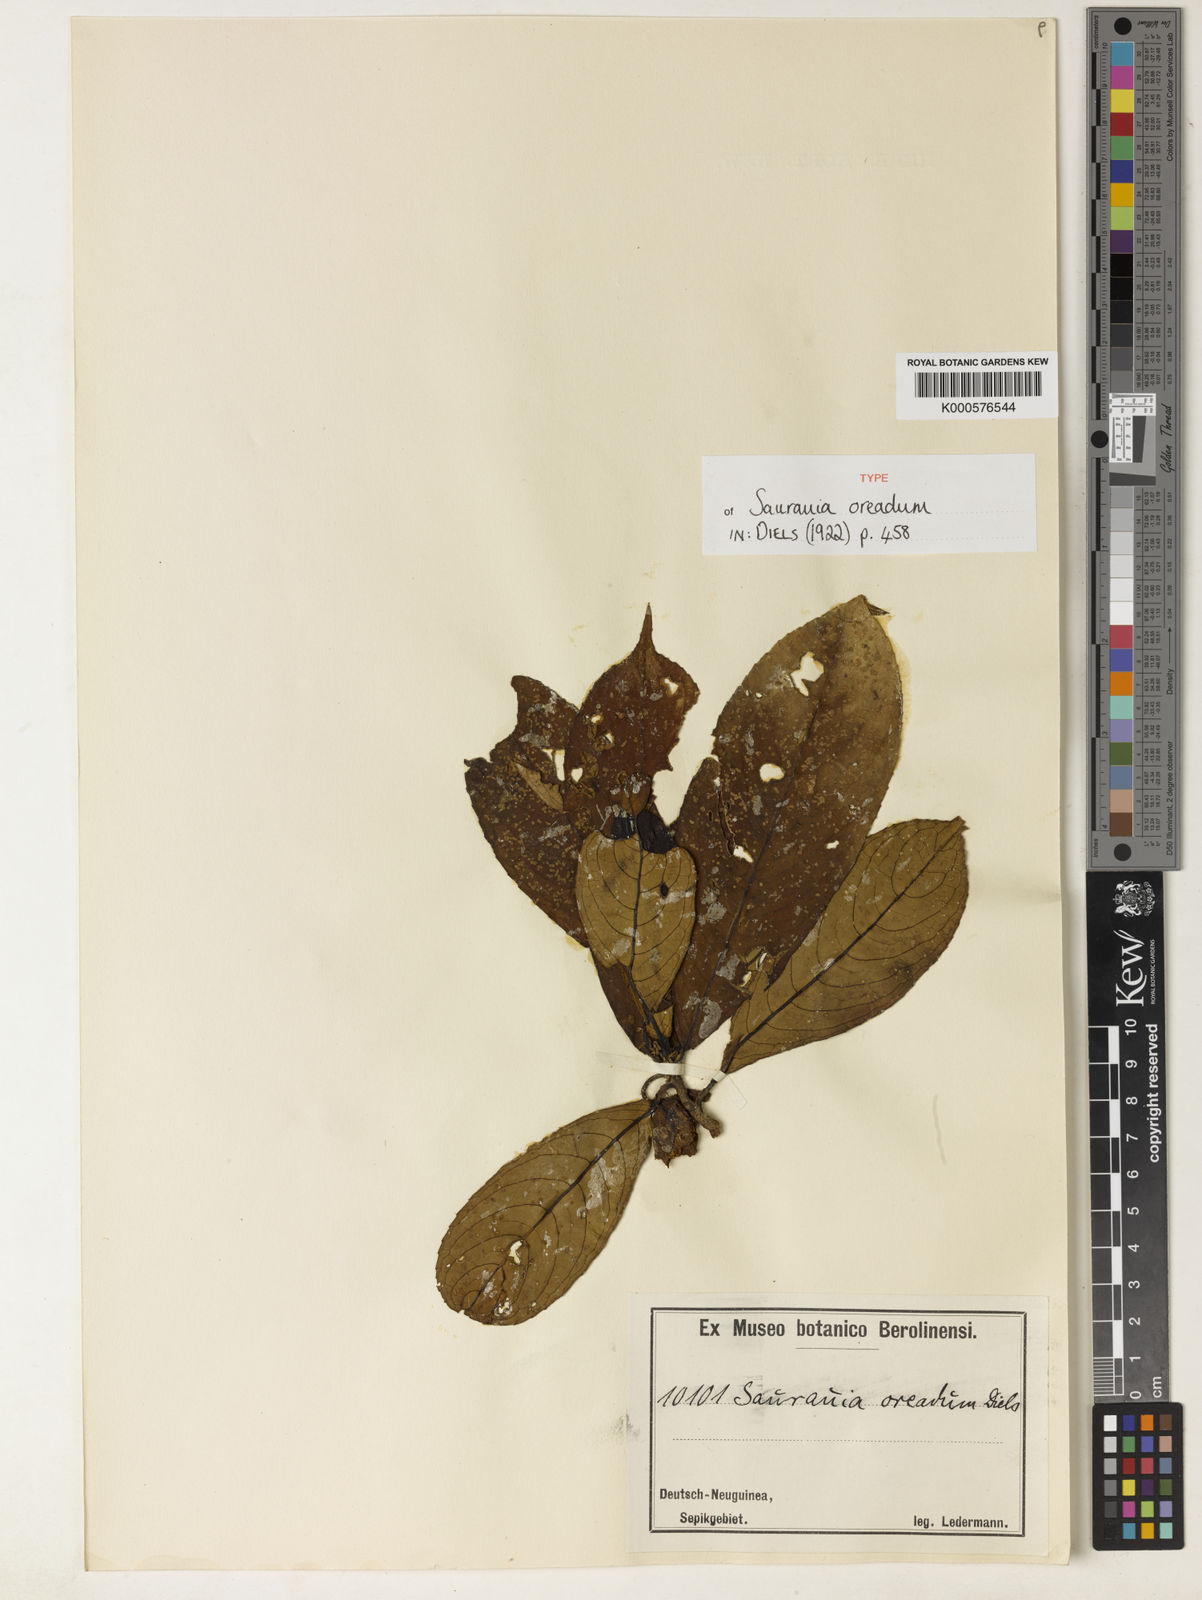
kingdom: Plantae
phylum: Tracheophyta
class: Magnoliopsida
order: Ericales
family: Actinidiaceae
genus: Saurauia
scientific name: Saurauia
